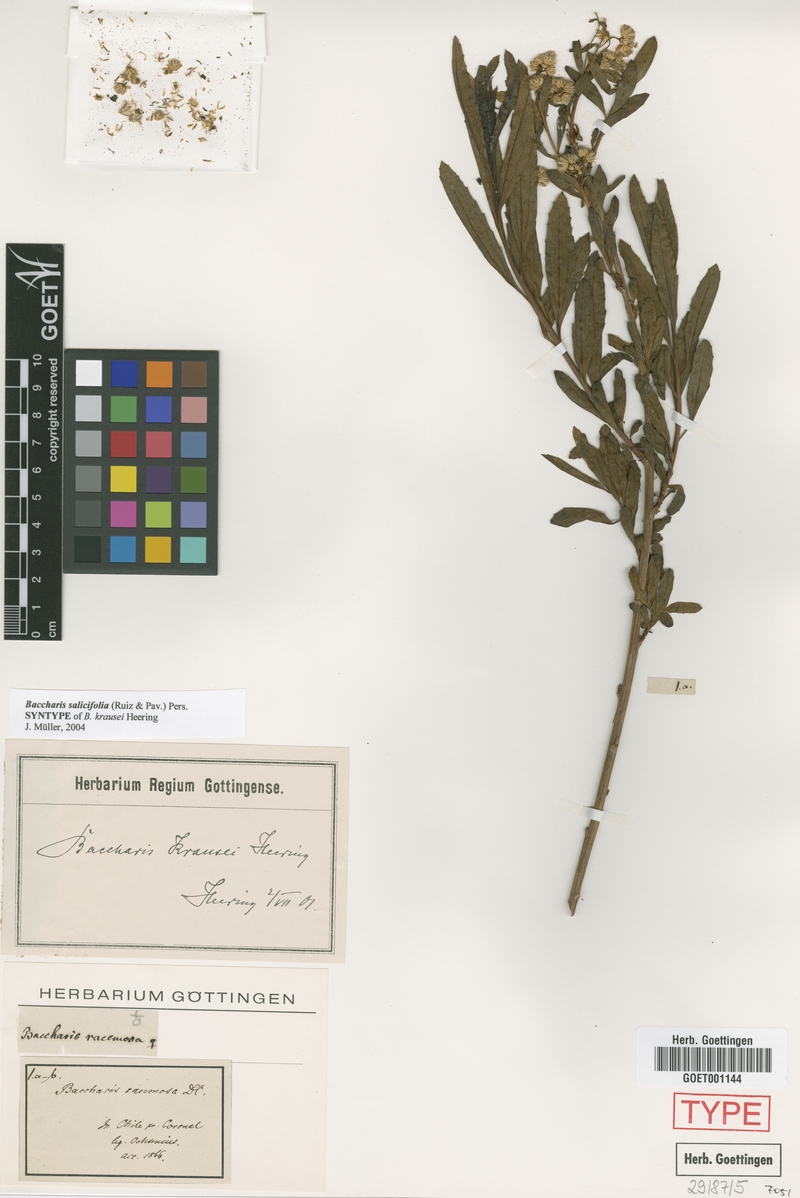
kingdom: Plantae
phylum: Tracheophyta
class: Magnoliopsida
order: Asterales
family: Asteraceae
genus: Baccharis
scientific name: Baccharis salicifolia
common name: Sticky baccharis
